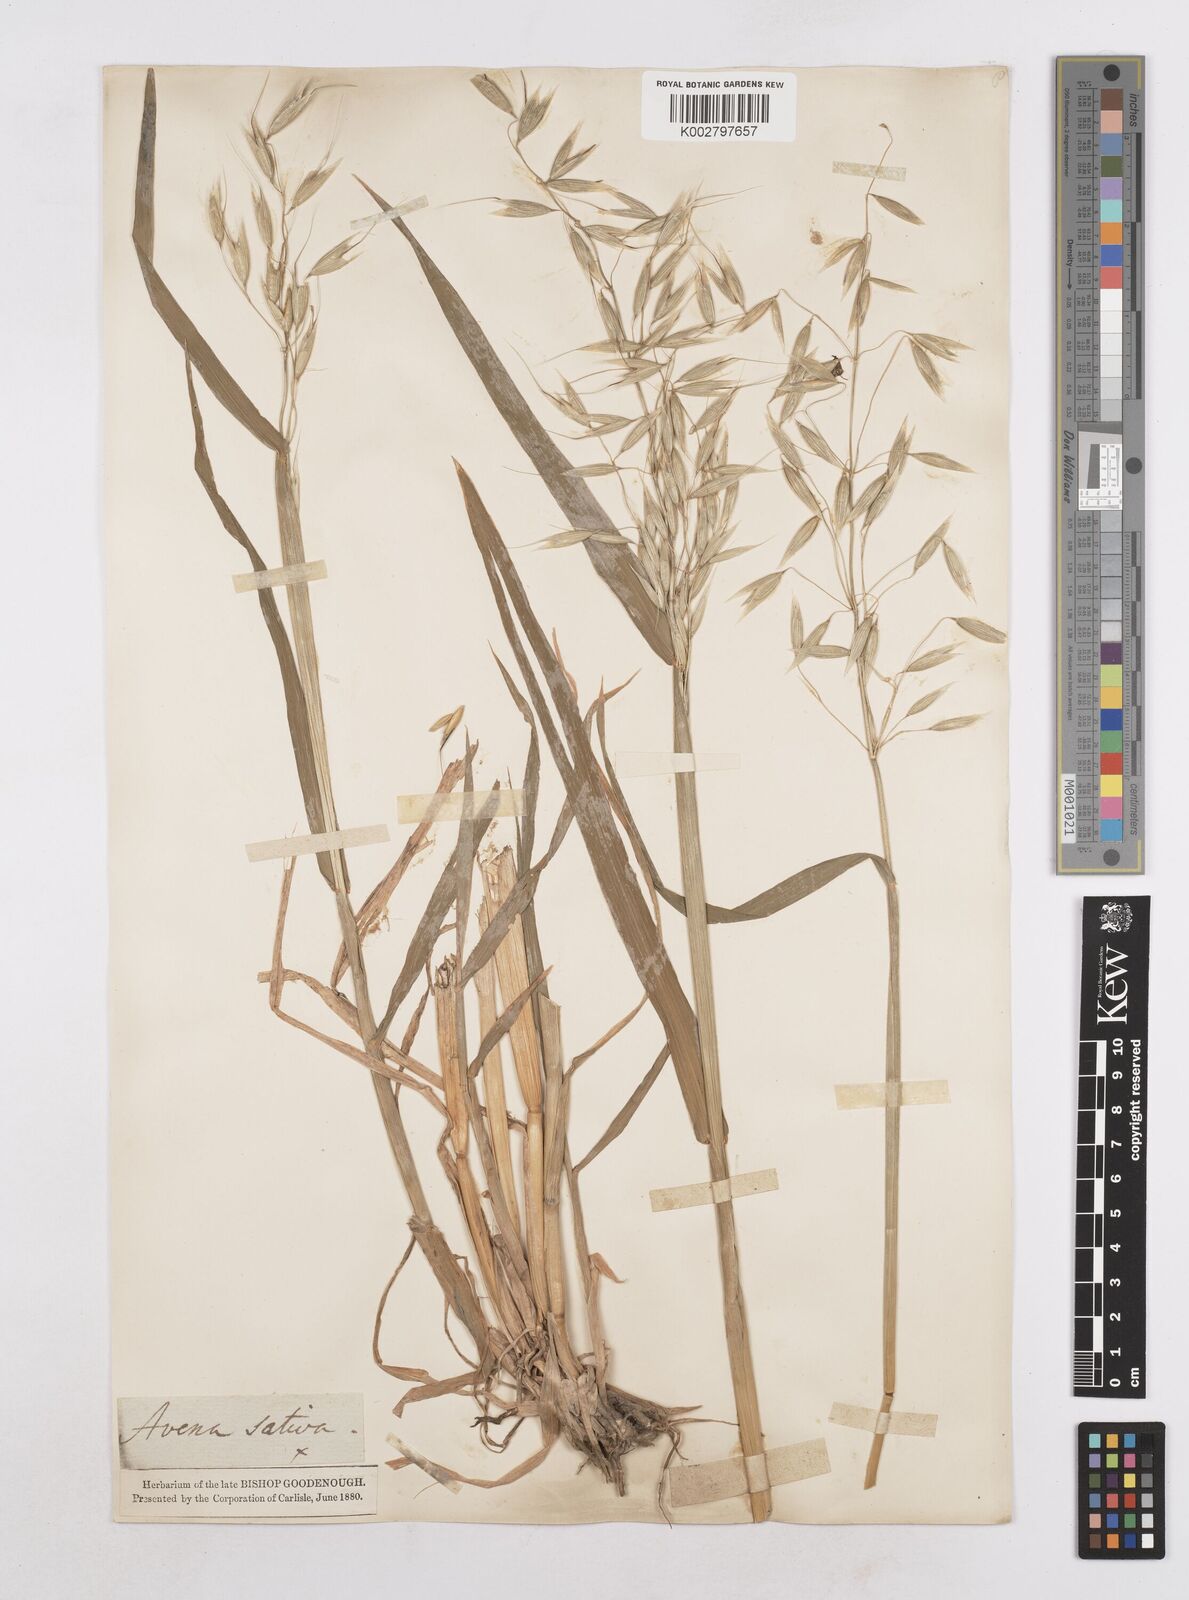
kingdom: Plantae
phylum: Tracheophyta
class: Liliopsida
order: Poales
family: Poaceae
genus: Avena
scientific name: Avena byzantina
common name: Algerian oat
